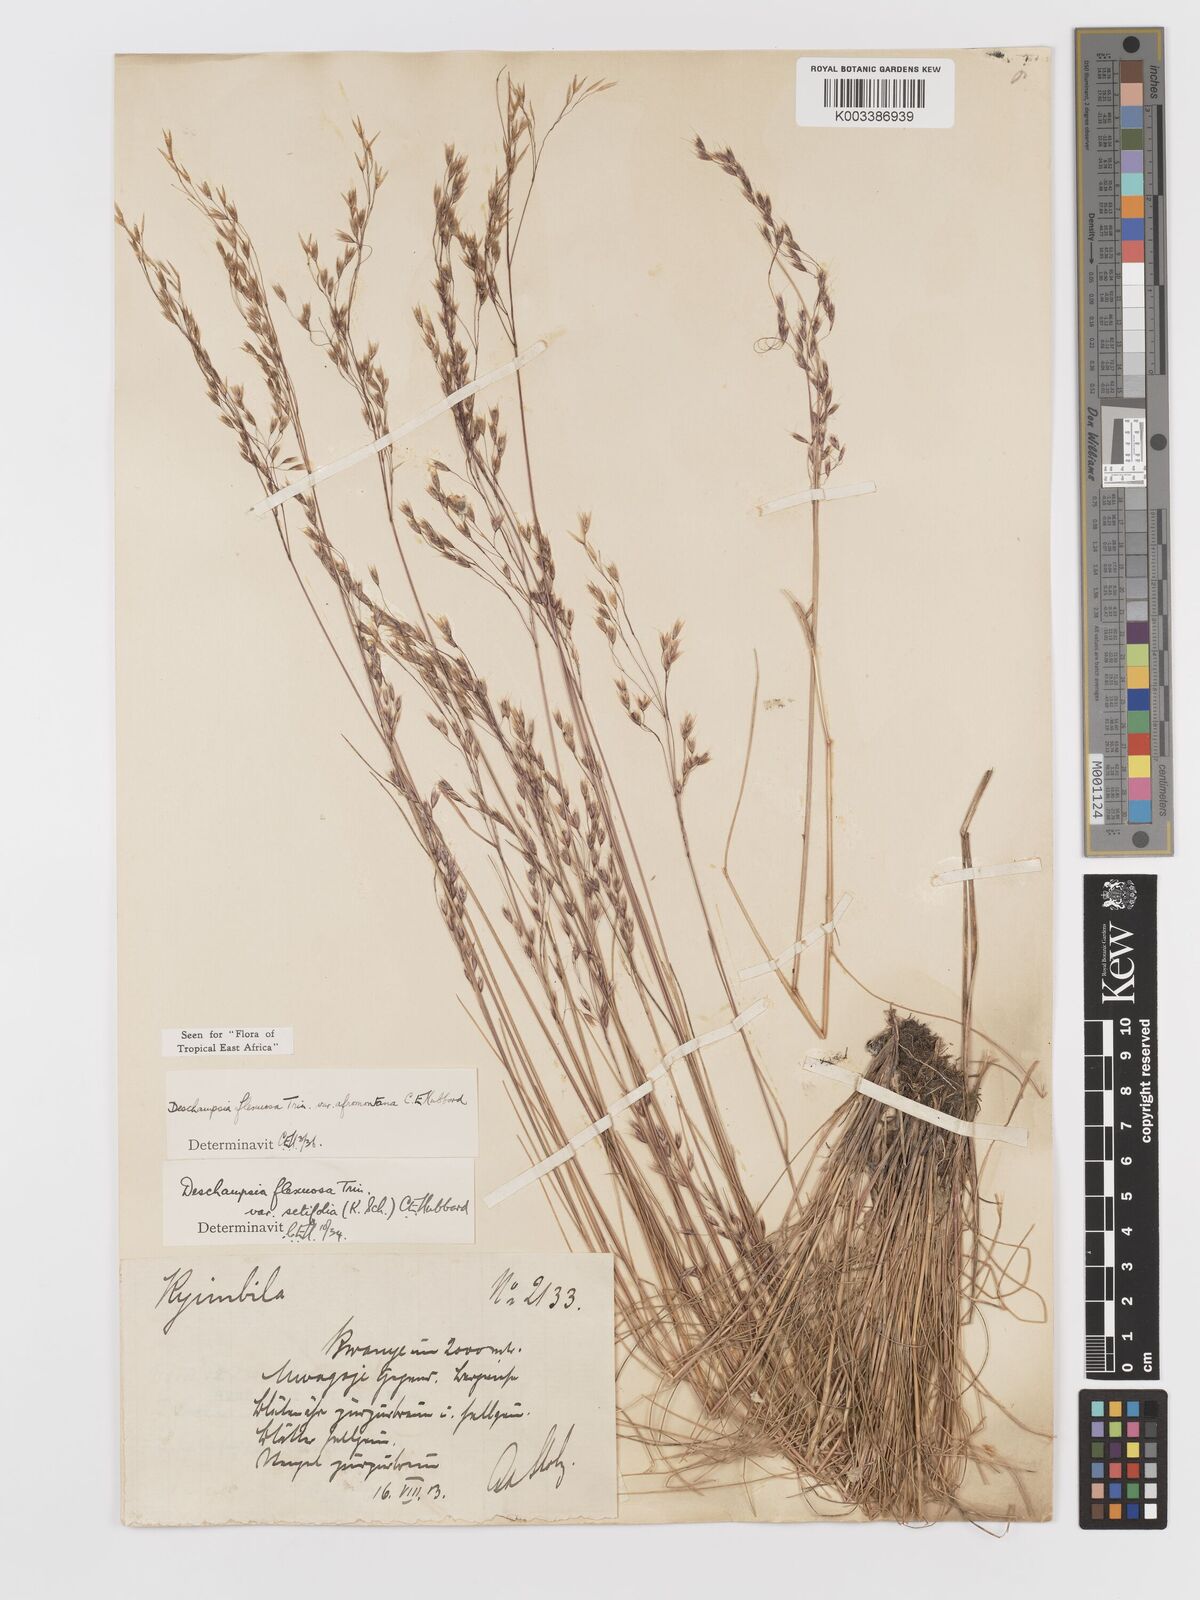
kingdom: Plantae
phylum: Tracheophyta
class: Liliopsida
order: Poales
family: Poaceae
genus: Avenella
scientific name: Avenella flexuosa
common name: Wavy hairgrass
